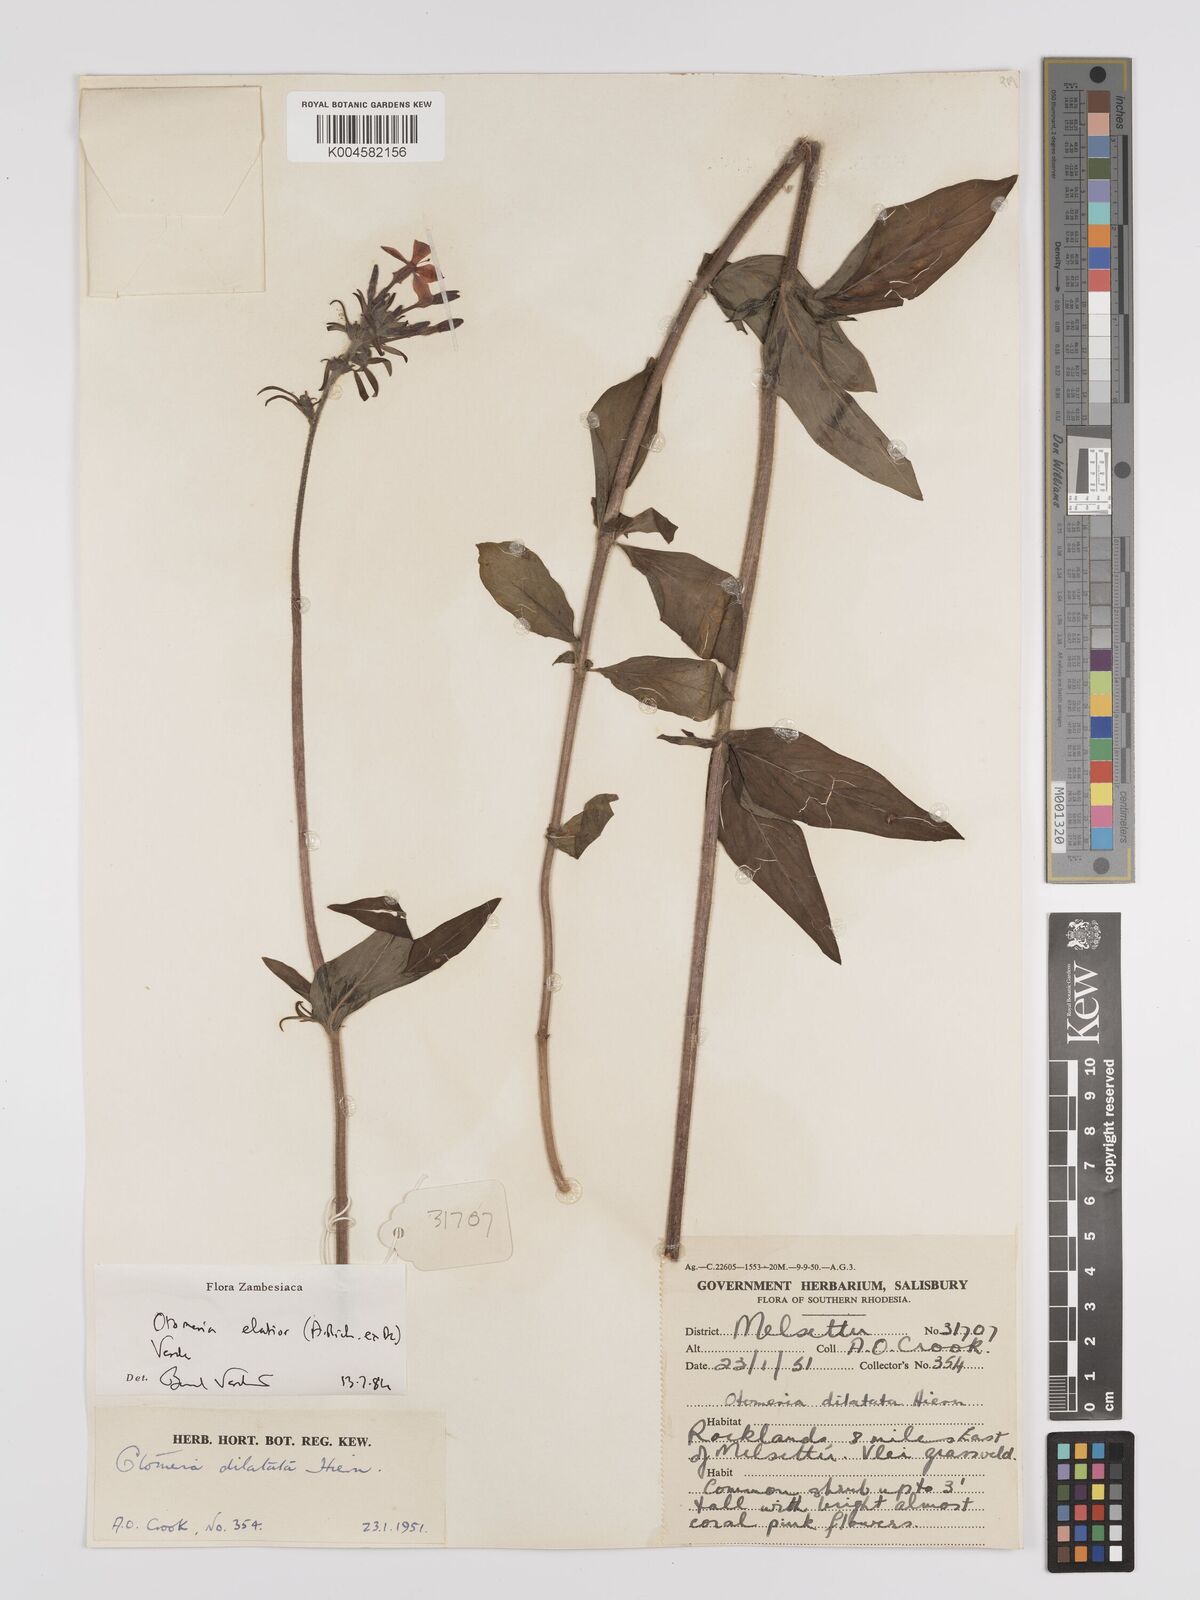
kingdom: Plantae
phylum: Tracheophyta
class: Magnoliopsida
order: Gentianales
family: Rubiaceae
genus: Otomeria
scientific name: Otomeria elatior
